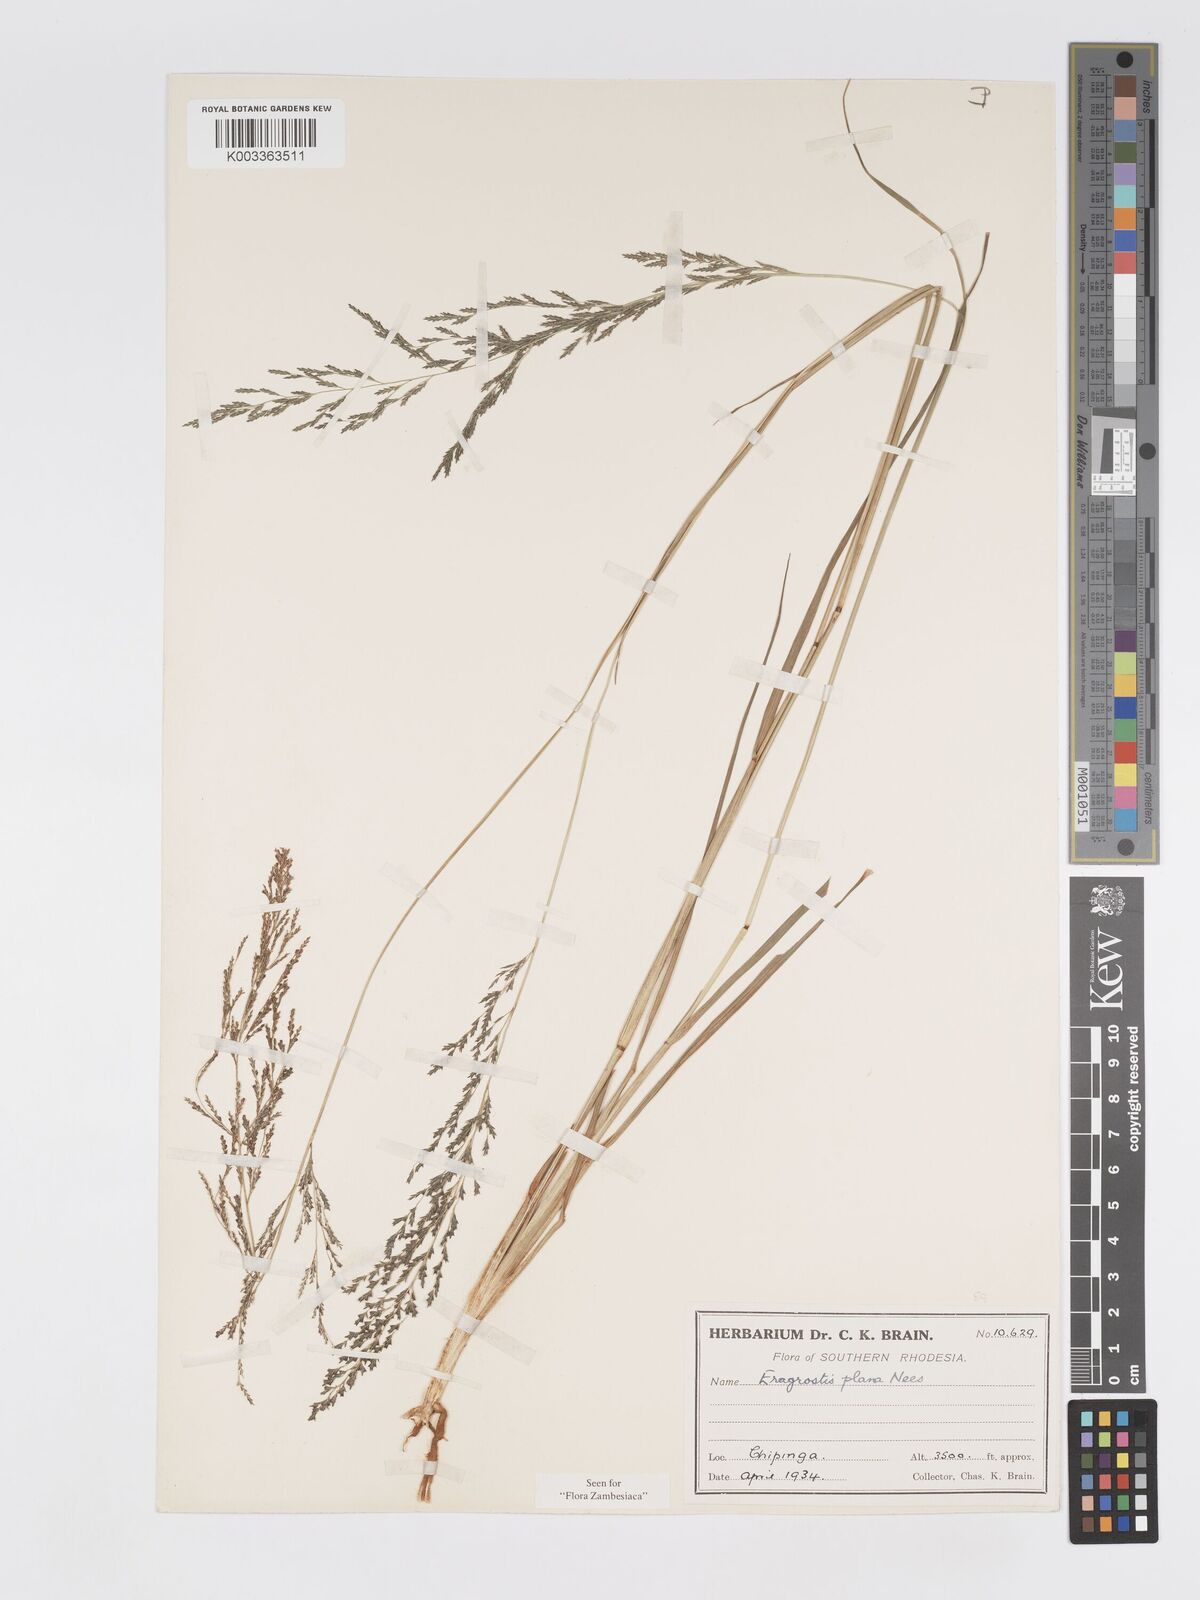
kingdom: Plantae
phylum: Tracheophyta
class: Liliopsida
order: Poales
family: Poaceae
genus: Eragrostis
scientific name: Eragrostis plana
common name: South african lovegrass
